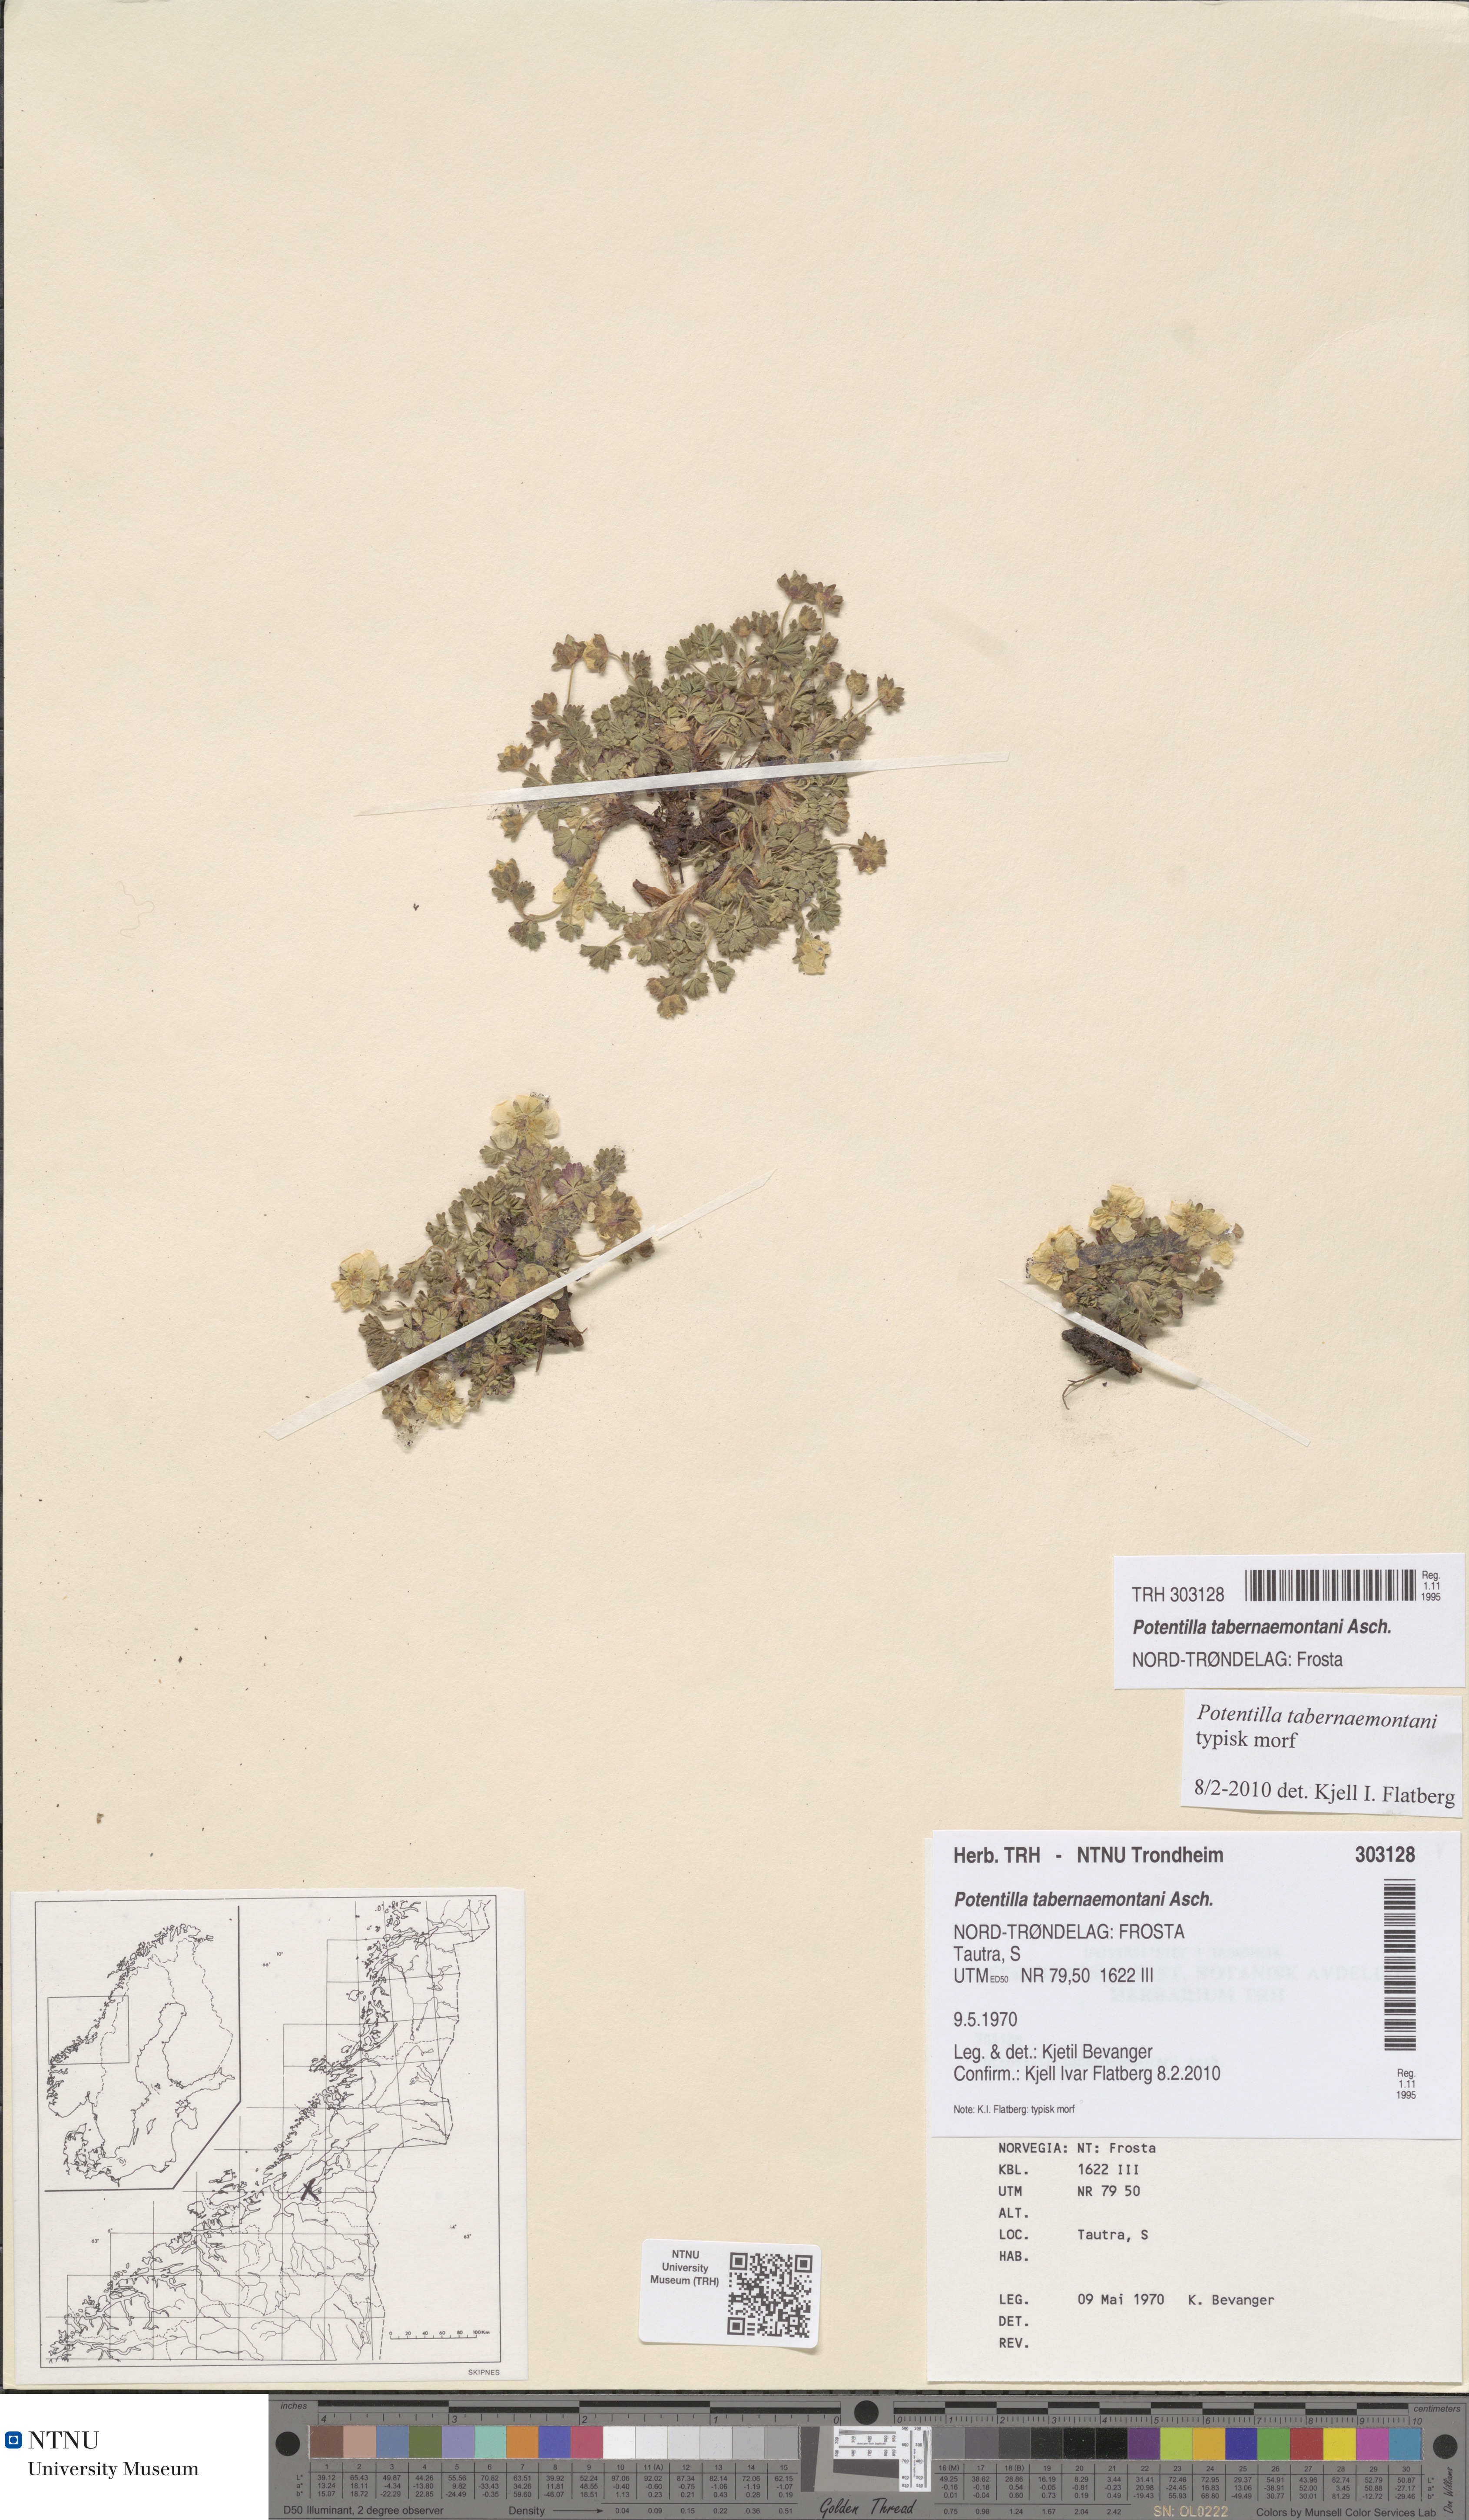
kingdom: Plantae
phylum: Tracheophyta
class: Magnoliopsida
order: Rosales
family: Rosaceae
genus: Potentilla
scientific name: Potentilla verna
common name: Spring cinquefoil
